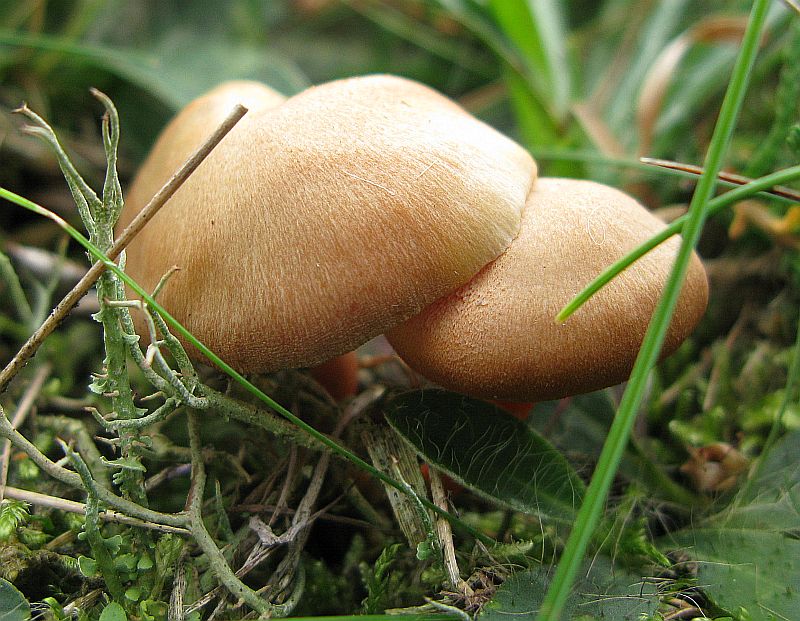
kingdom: Fungi
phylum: Basidiomycota
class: Agaricomycetes
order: Agaricales
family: Hygrophoraceae
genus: Hygrocybe
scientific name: Hygrocybe miniata
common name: mønje-vokshat
